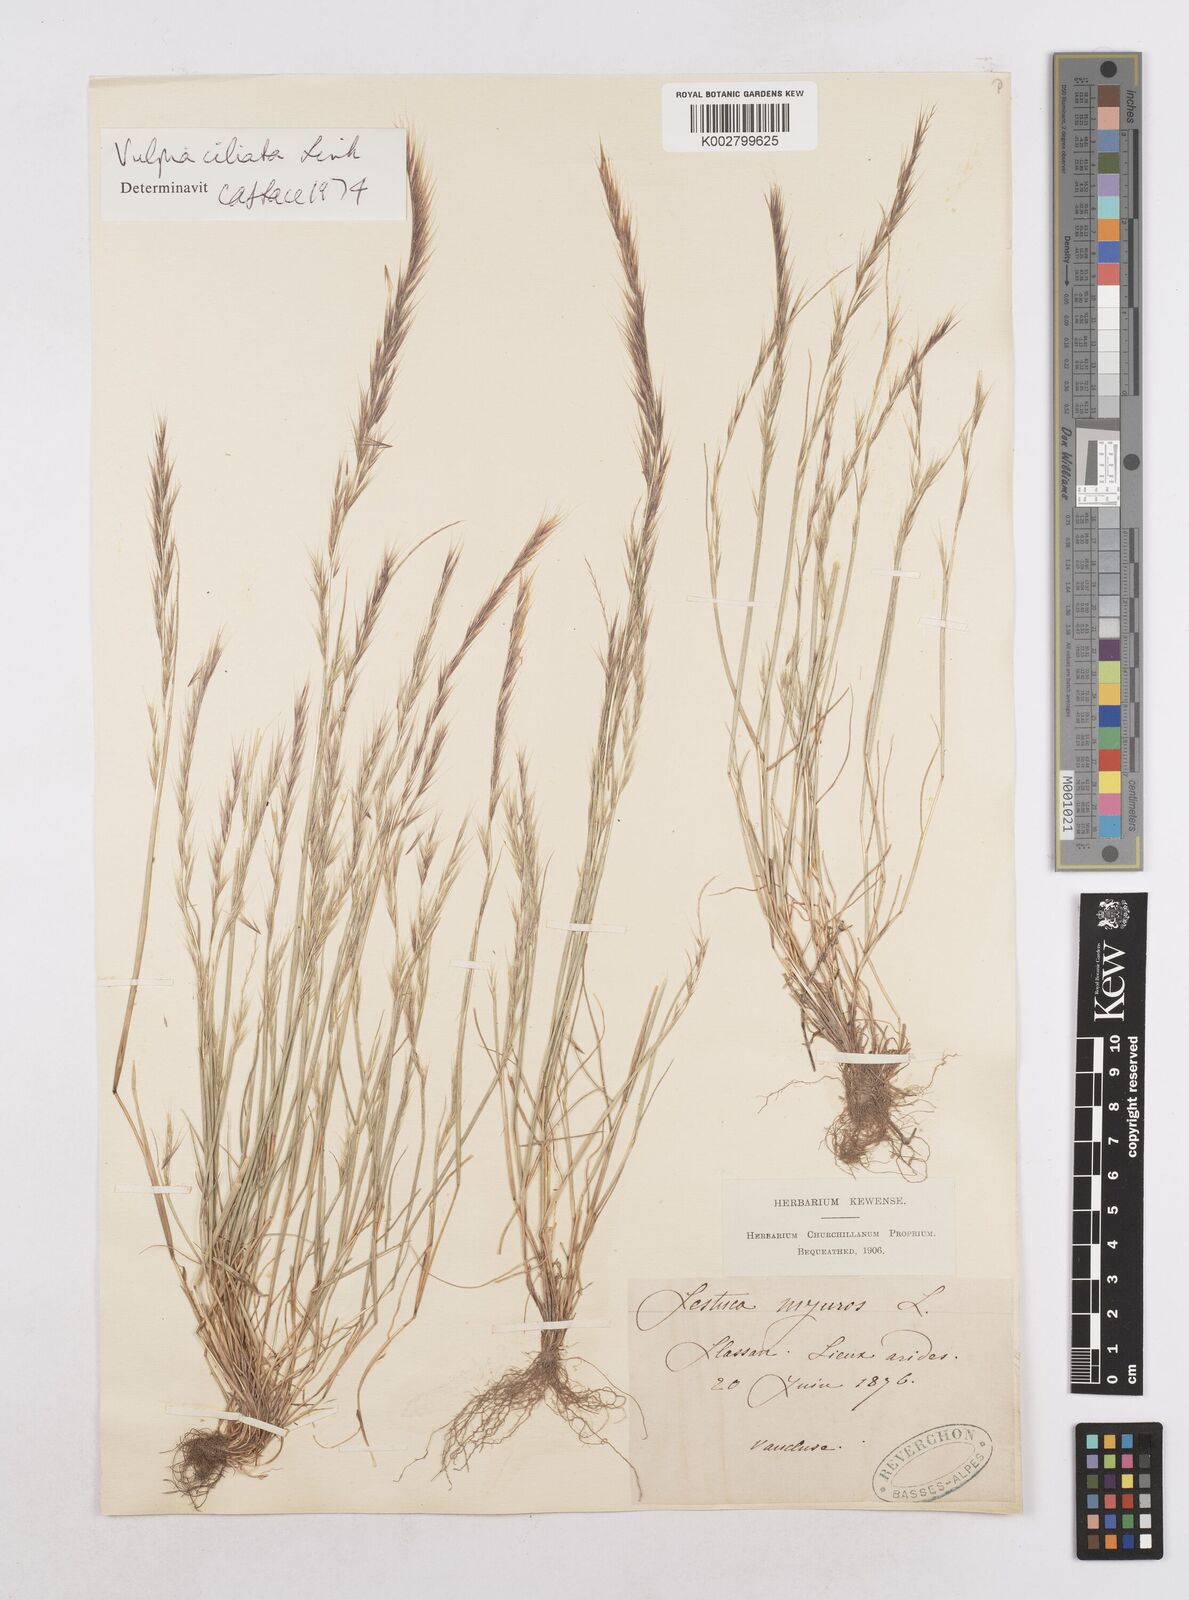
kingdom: Plantae
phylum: Tracheophyta
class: Liliopsida
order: Poales
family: Poaceae
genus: Festuca
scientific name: Festuca
